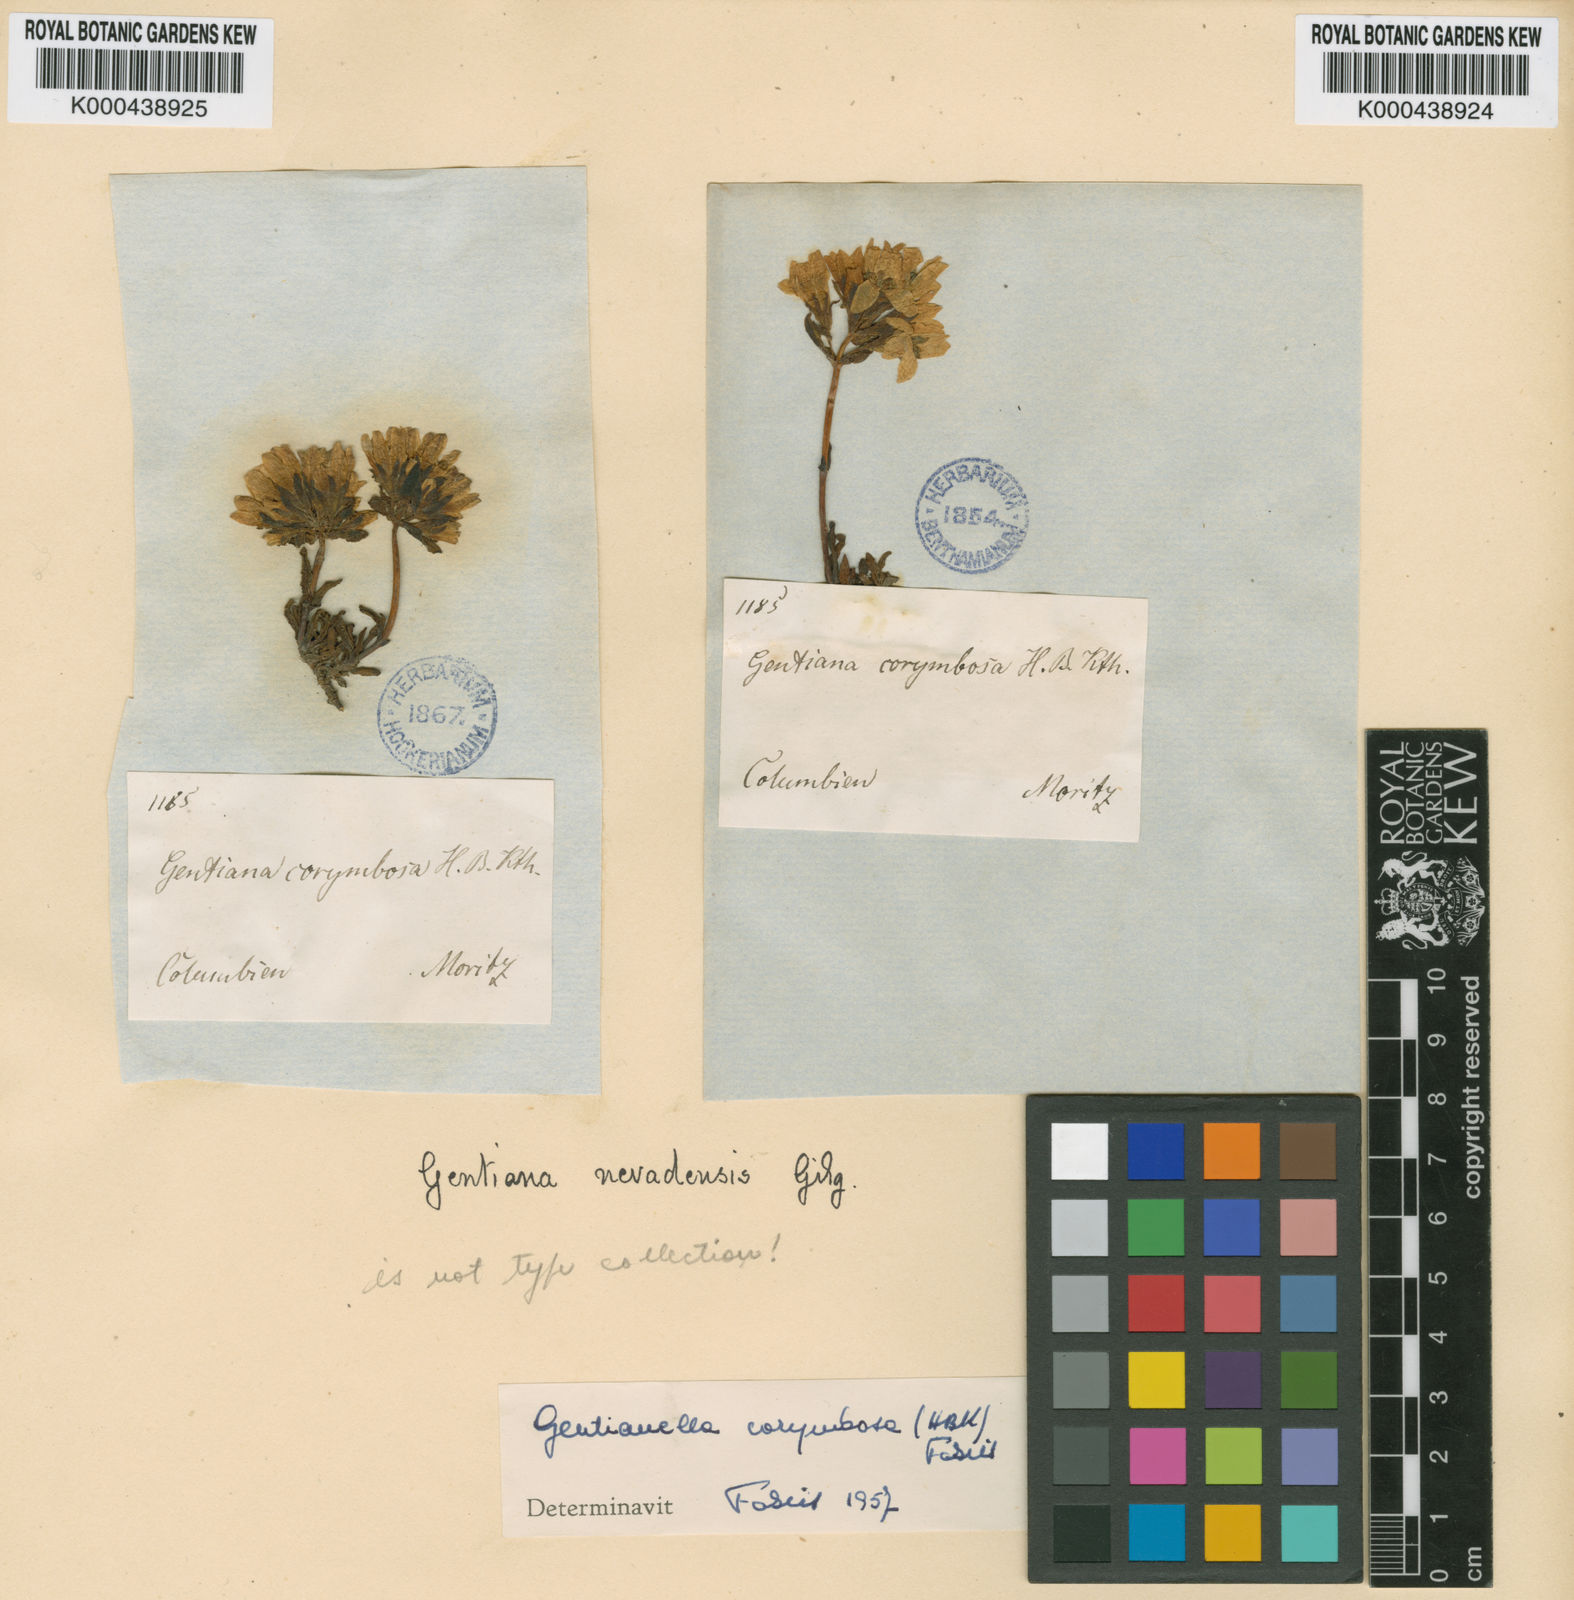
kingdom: Plantae
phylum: Tracheophyta
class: Magnoliopsida
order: Gentianales
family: Gentianaceae
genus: Gentianella
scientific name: Gentianella nevadensis
